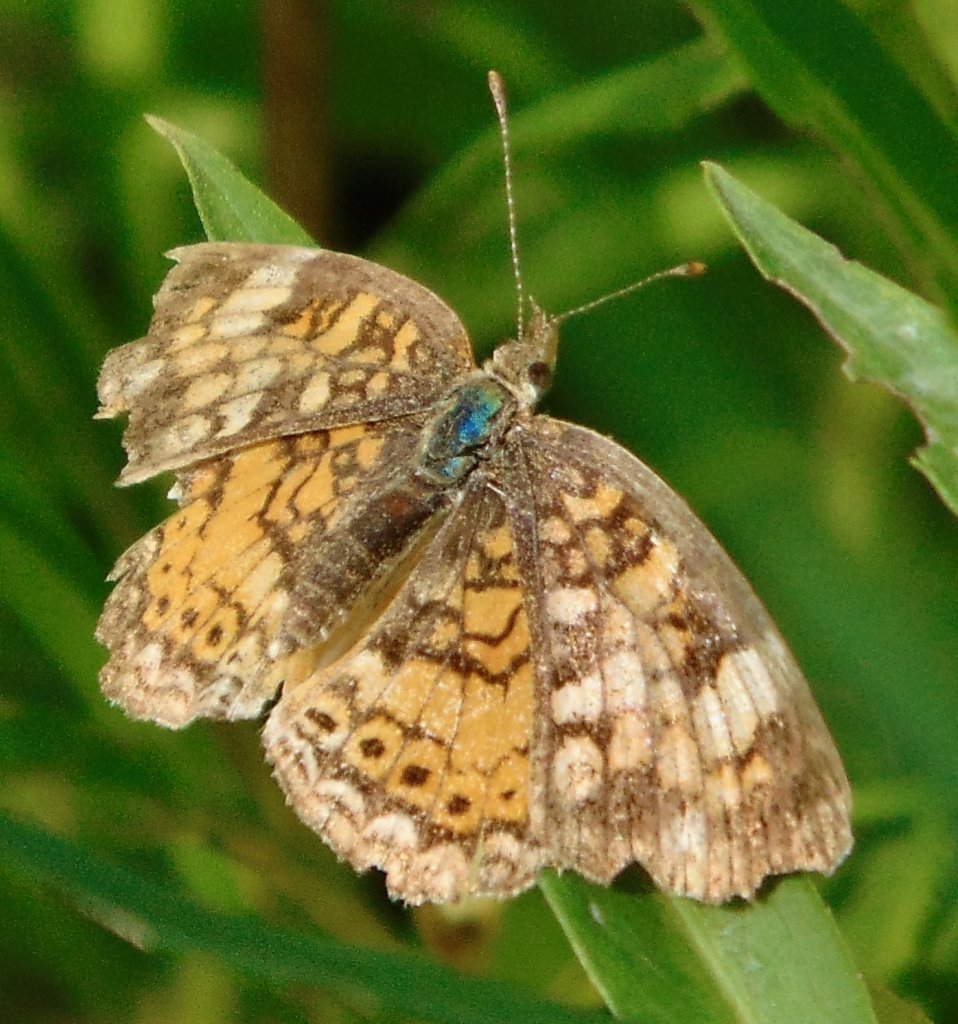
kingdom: Animalia
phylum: Arthropoda
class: Insecta
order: Lepidoptera
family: Nymphalidae
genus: Phyciodes
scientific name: Phyciodes tharos
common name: Pearl Crescent
